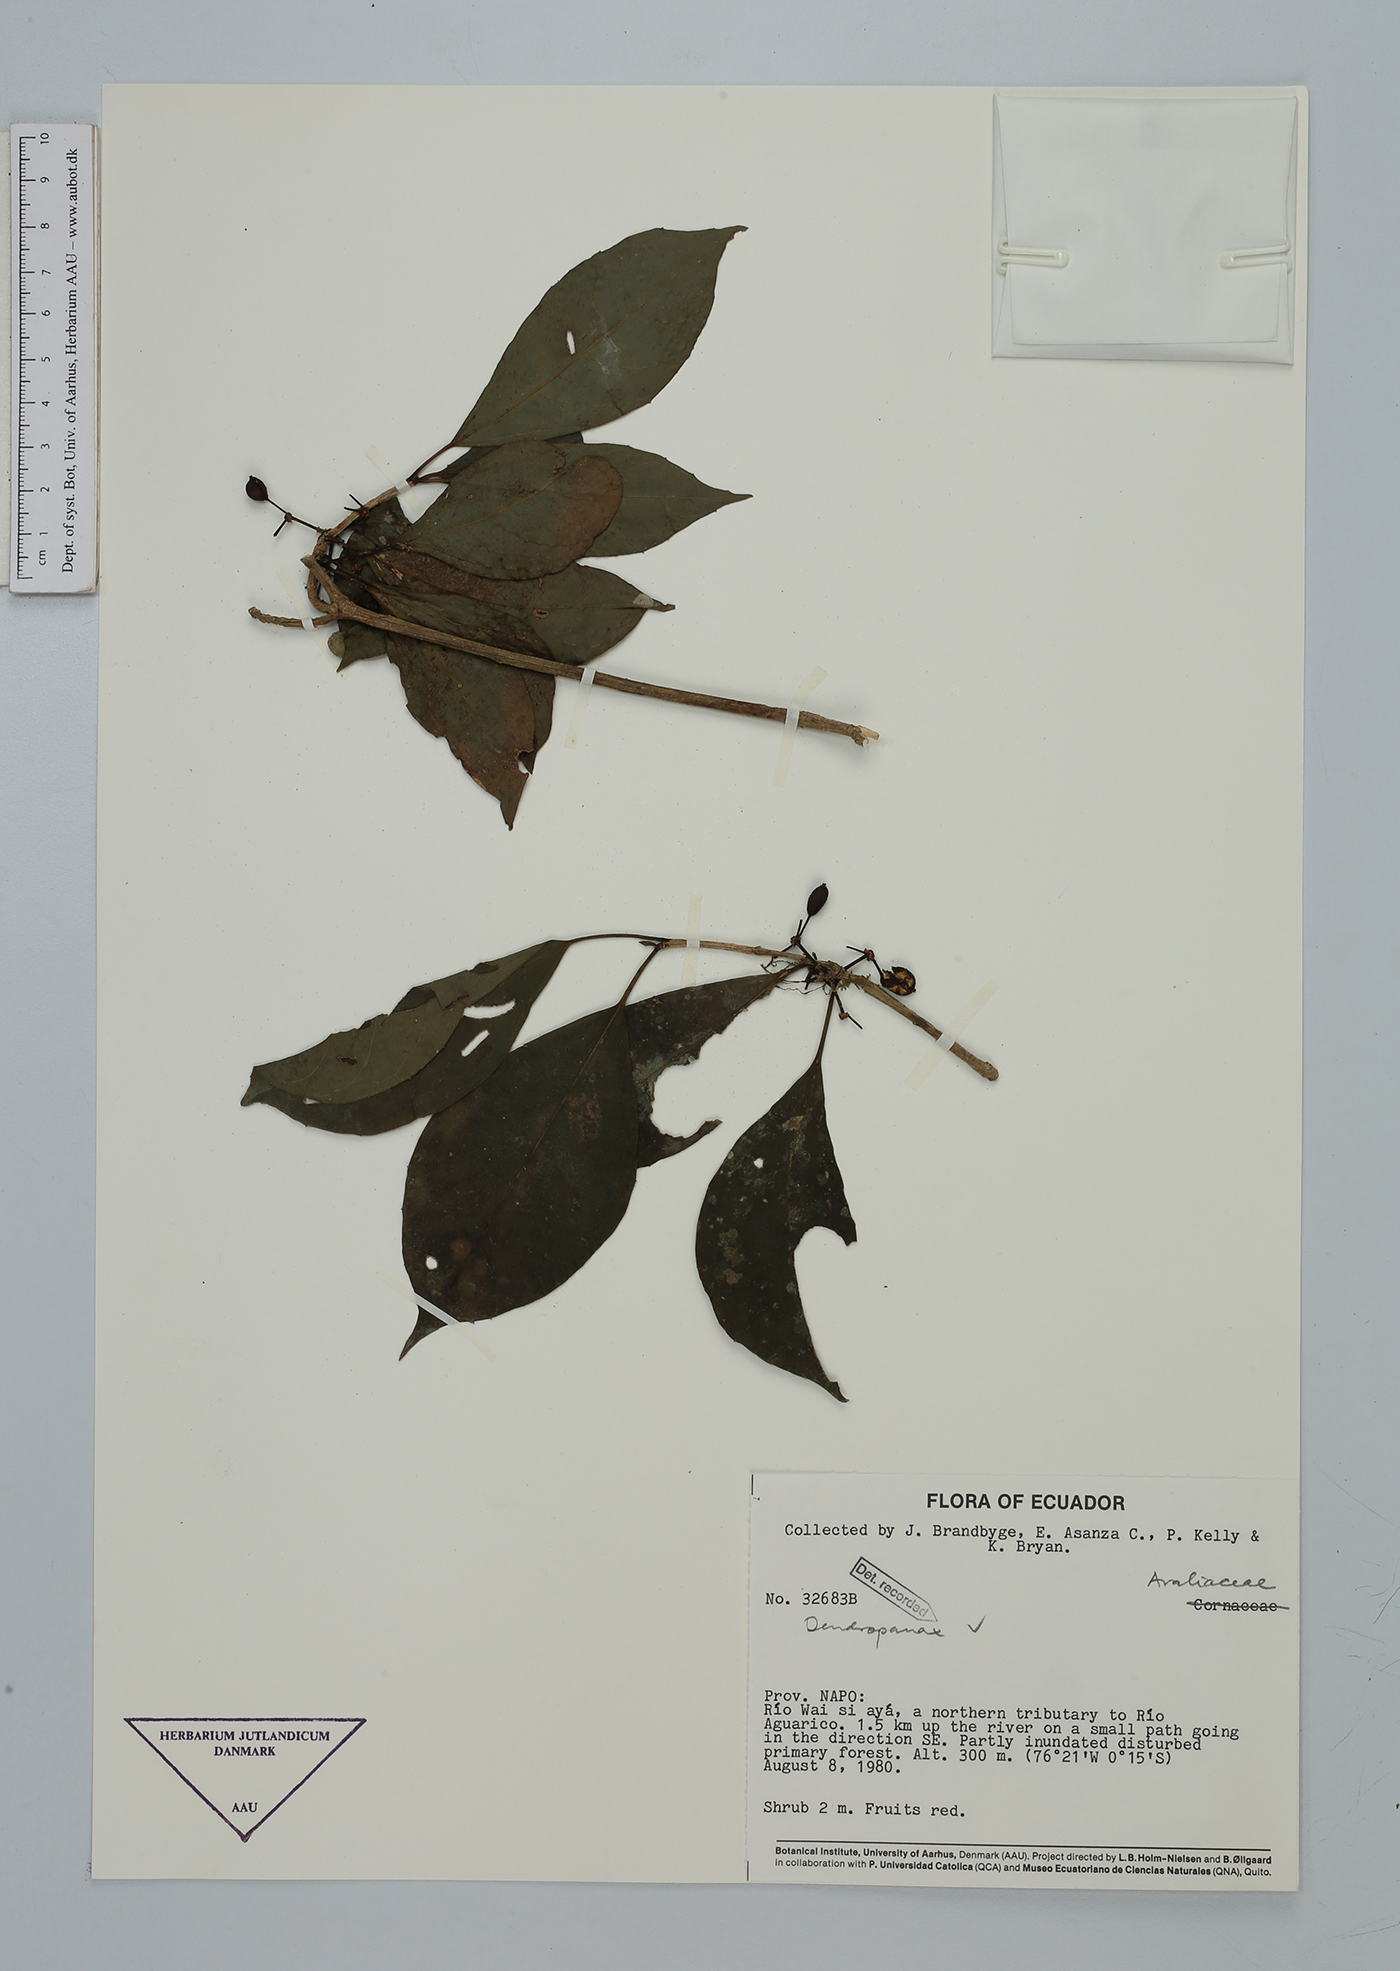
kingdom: Plantae
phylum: Tracheophyta
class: Magnoliopsida
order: Apiales
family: Araliaceae
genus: Dendropanax
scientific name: Dendropanax
